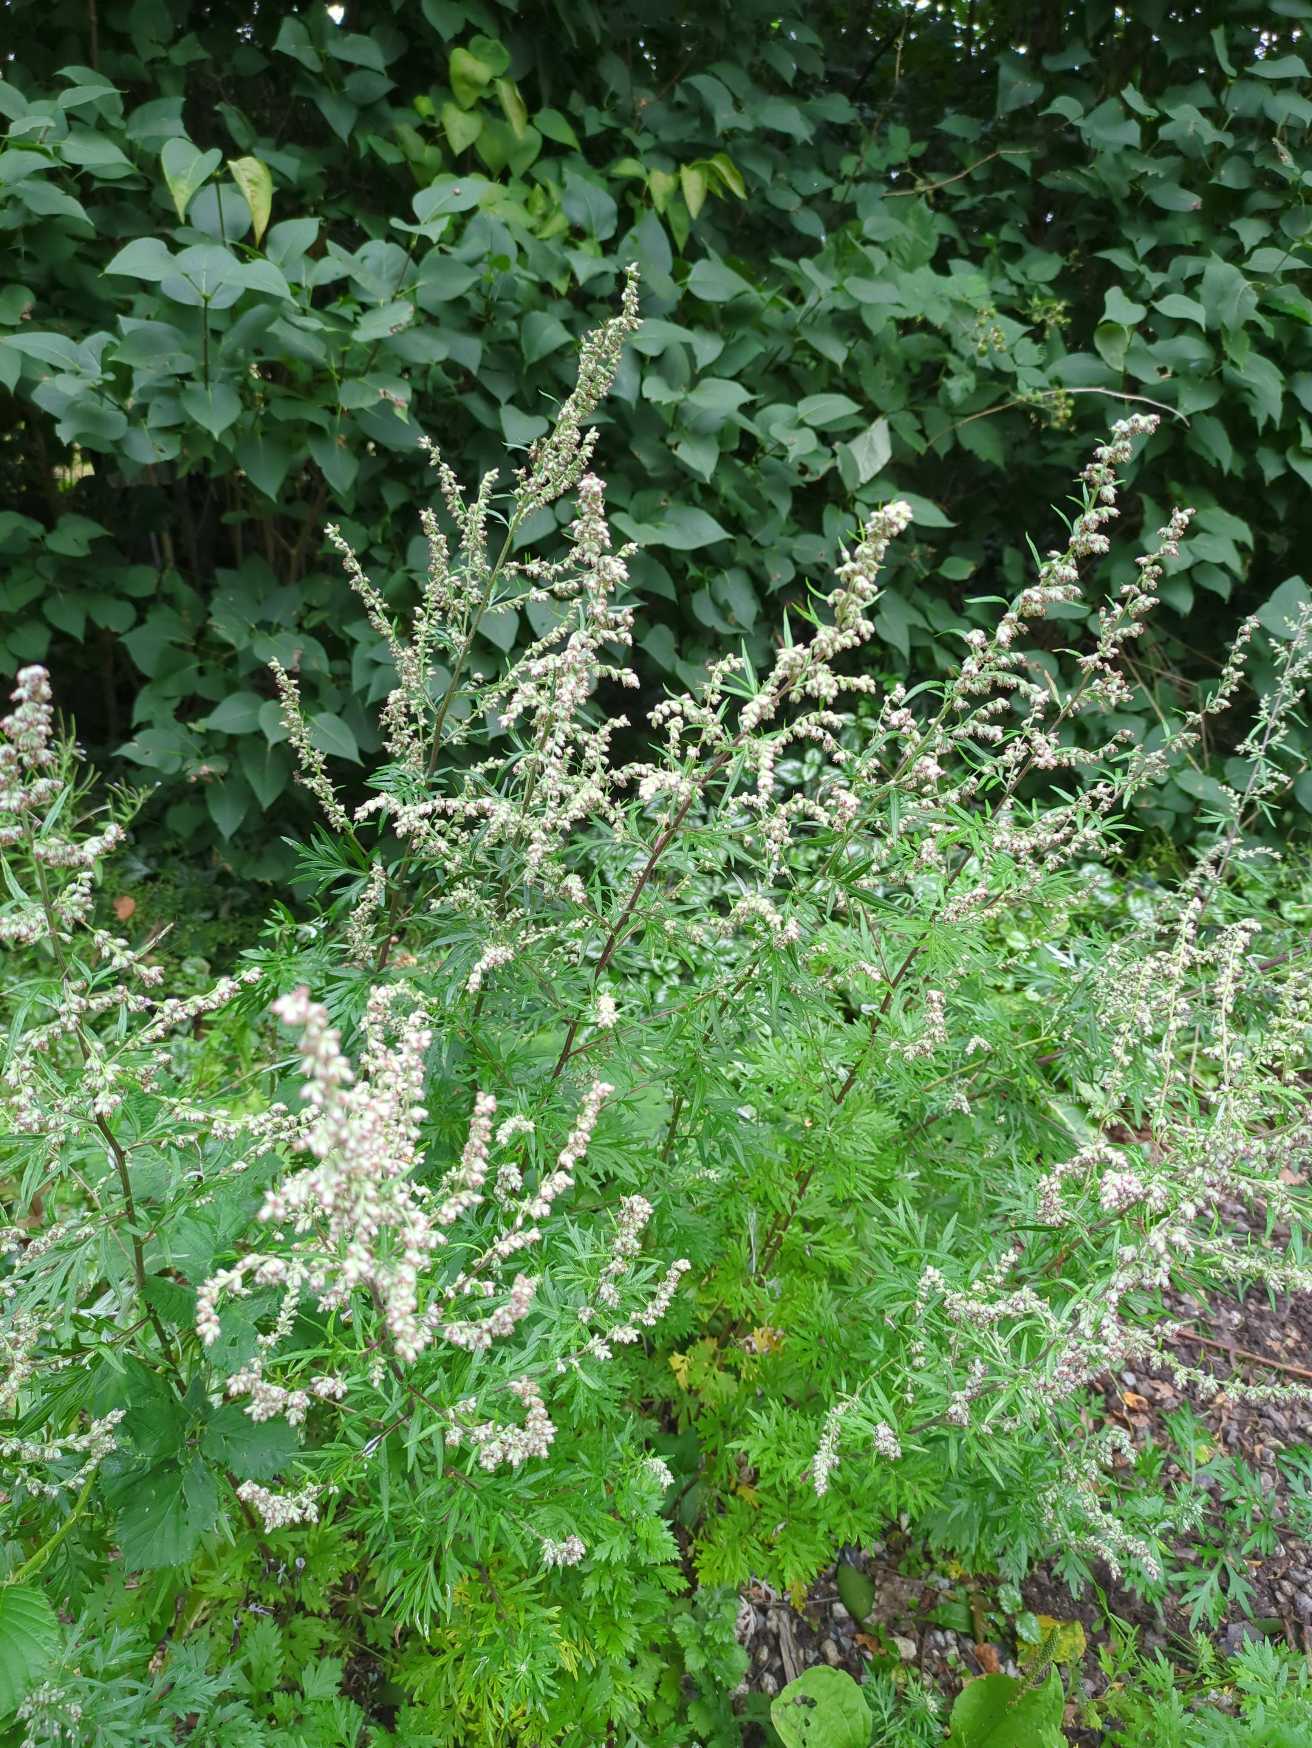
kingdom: Plantae
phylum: Tracheophyta
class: Magnoliopsida
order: Asterales
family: Asteraceae
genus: Artemisia
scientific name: Artemisia vulgaris
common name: Grå-bynke
